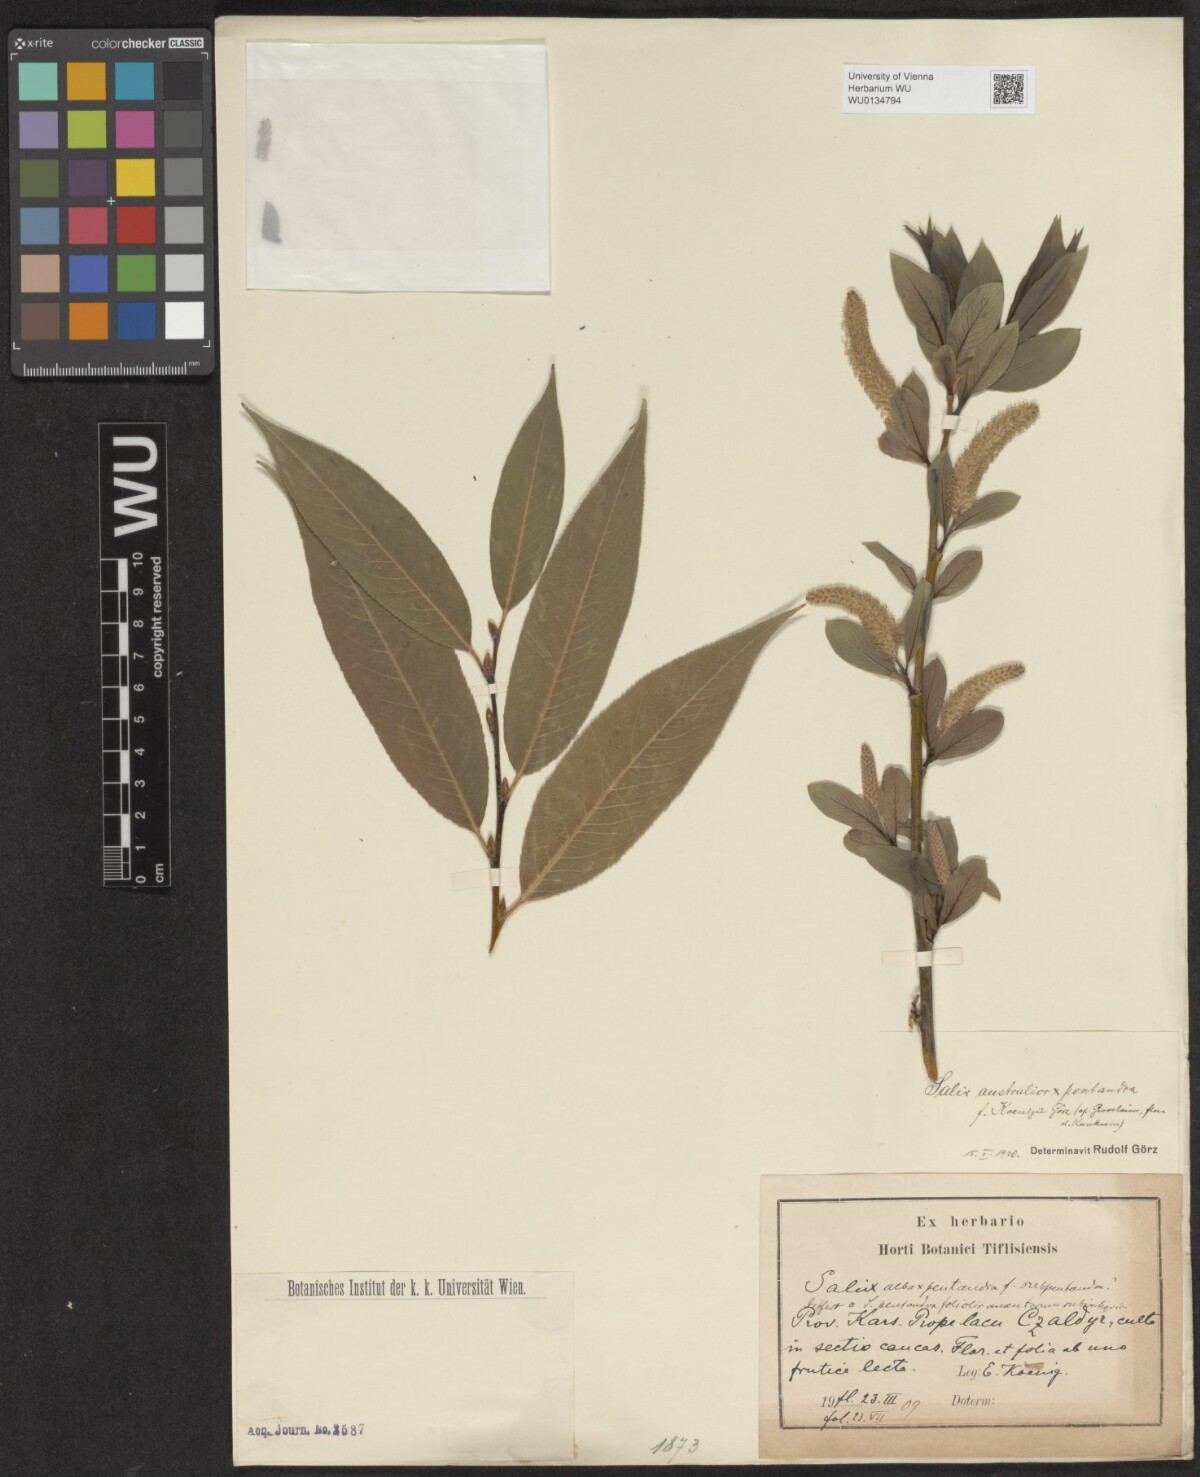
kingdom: Plantae
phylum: Tracheophyta
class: Magnoliopsida
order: Malpighiales
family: Salicaceae
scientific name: Salicaceae
